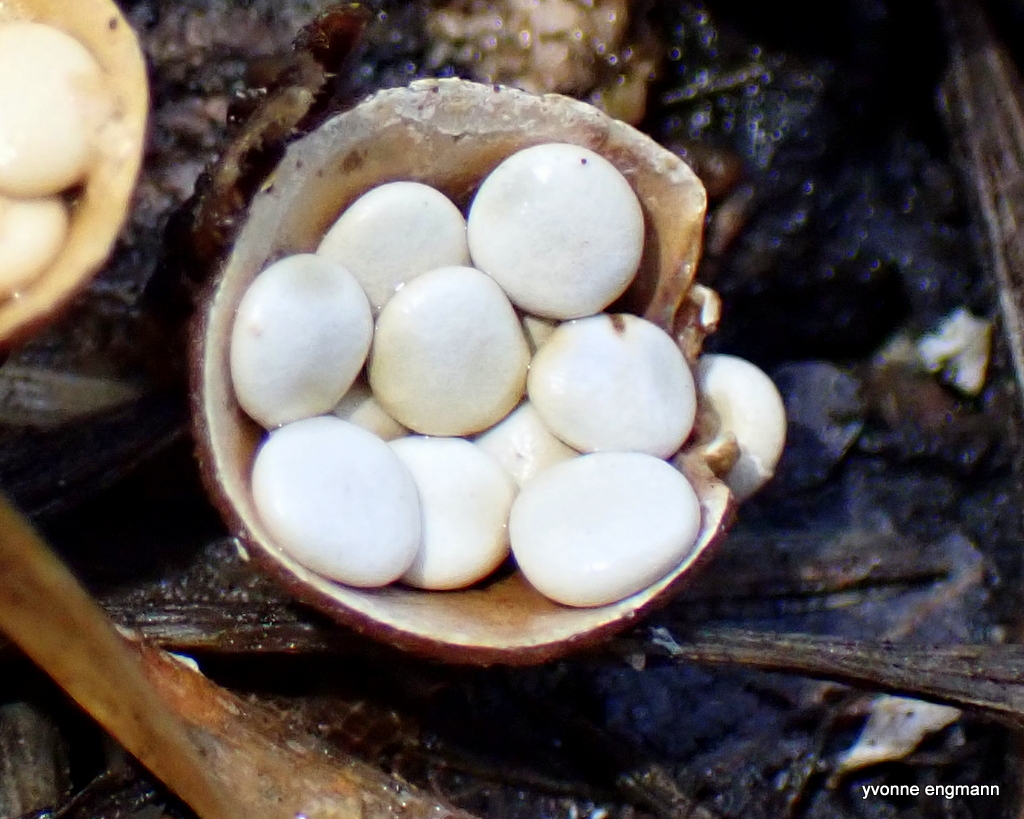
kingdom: Fungi
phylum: Basidiomycota
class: Agaricomycetes
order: Agaricales
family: Nidulariaceae
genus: Crucibulum
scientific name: Crucibulum crucibuliforme
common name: krukkesvamp
